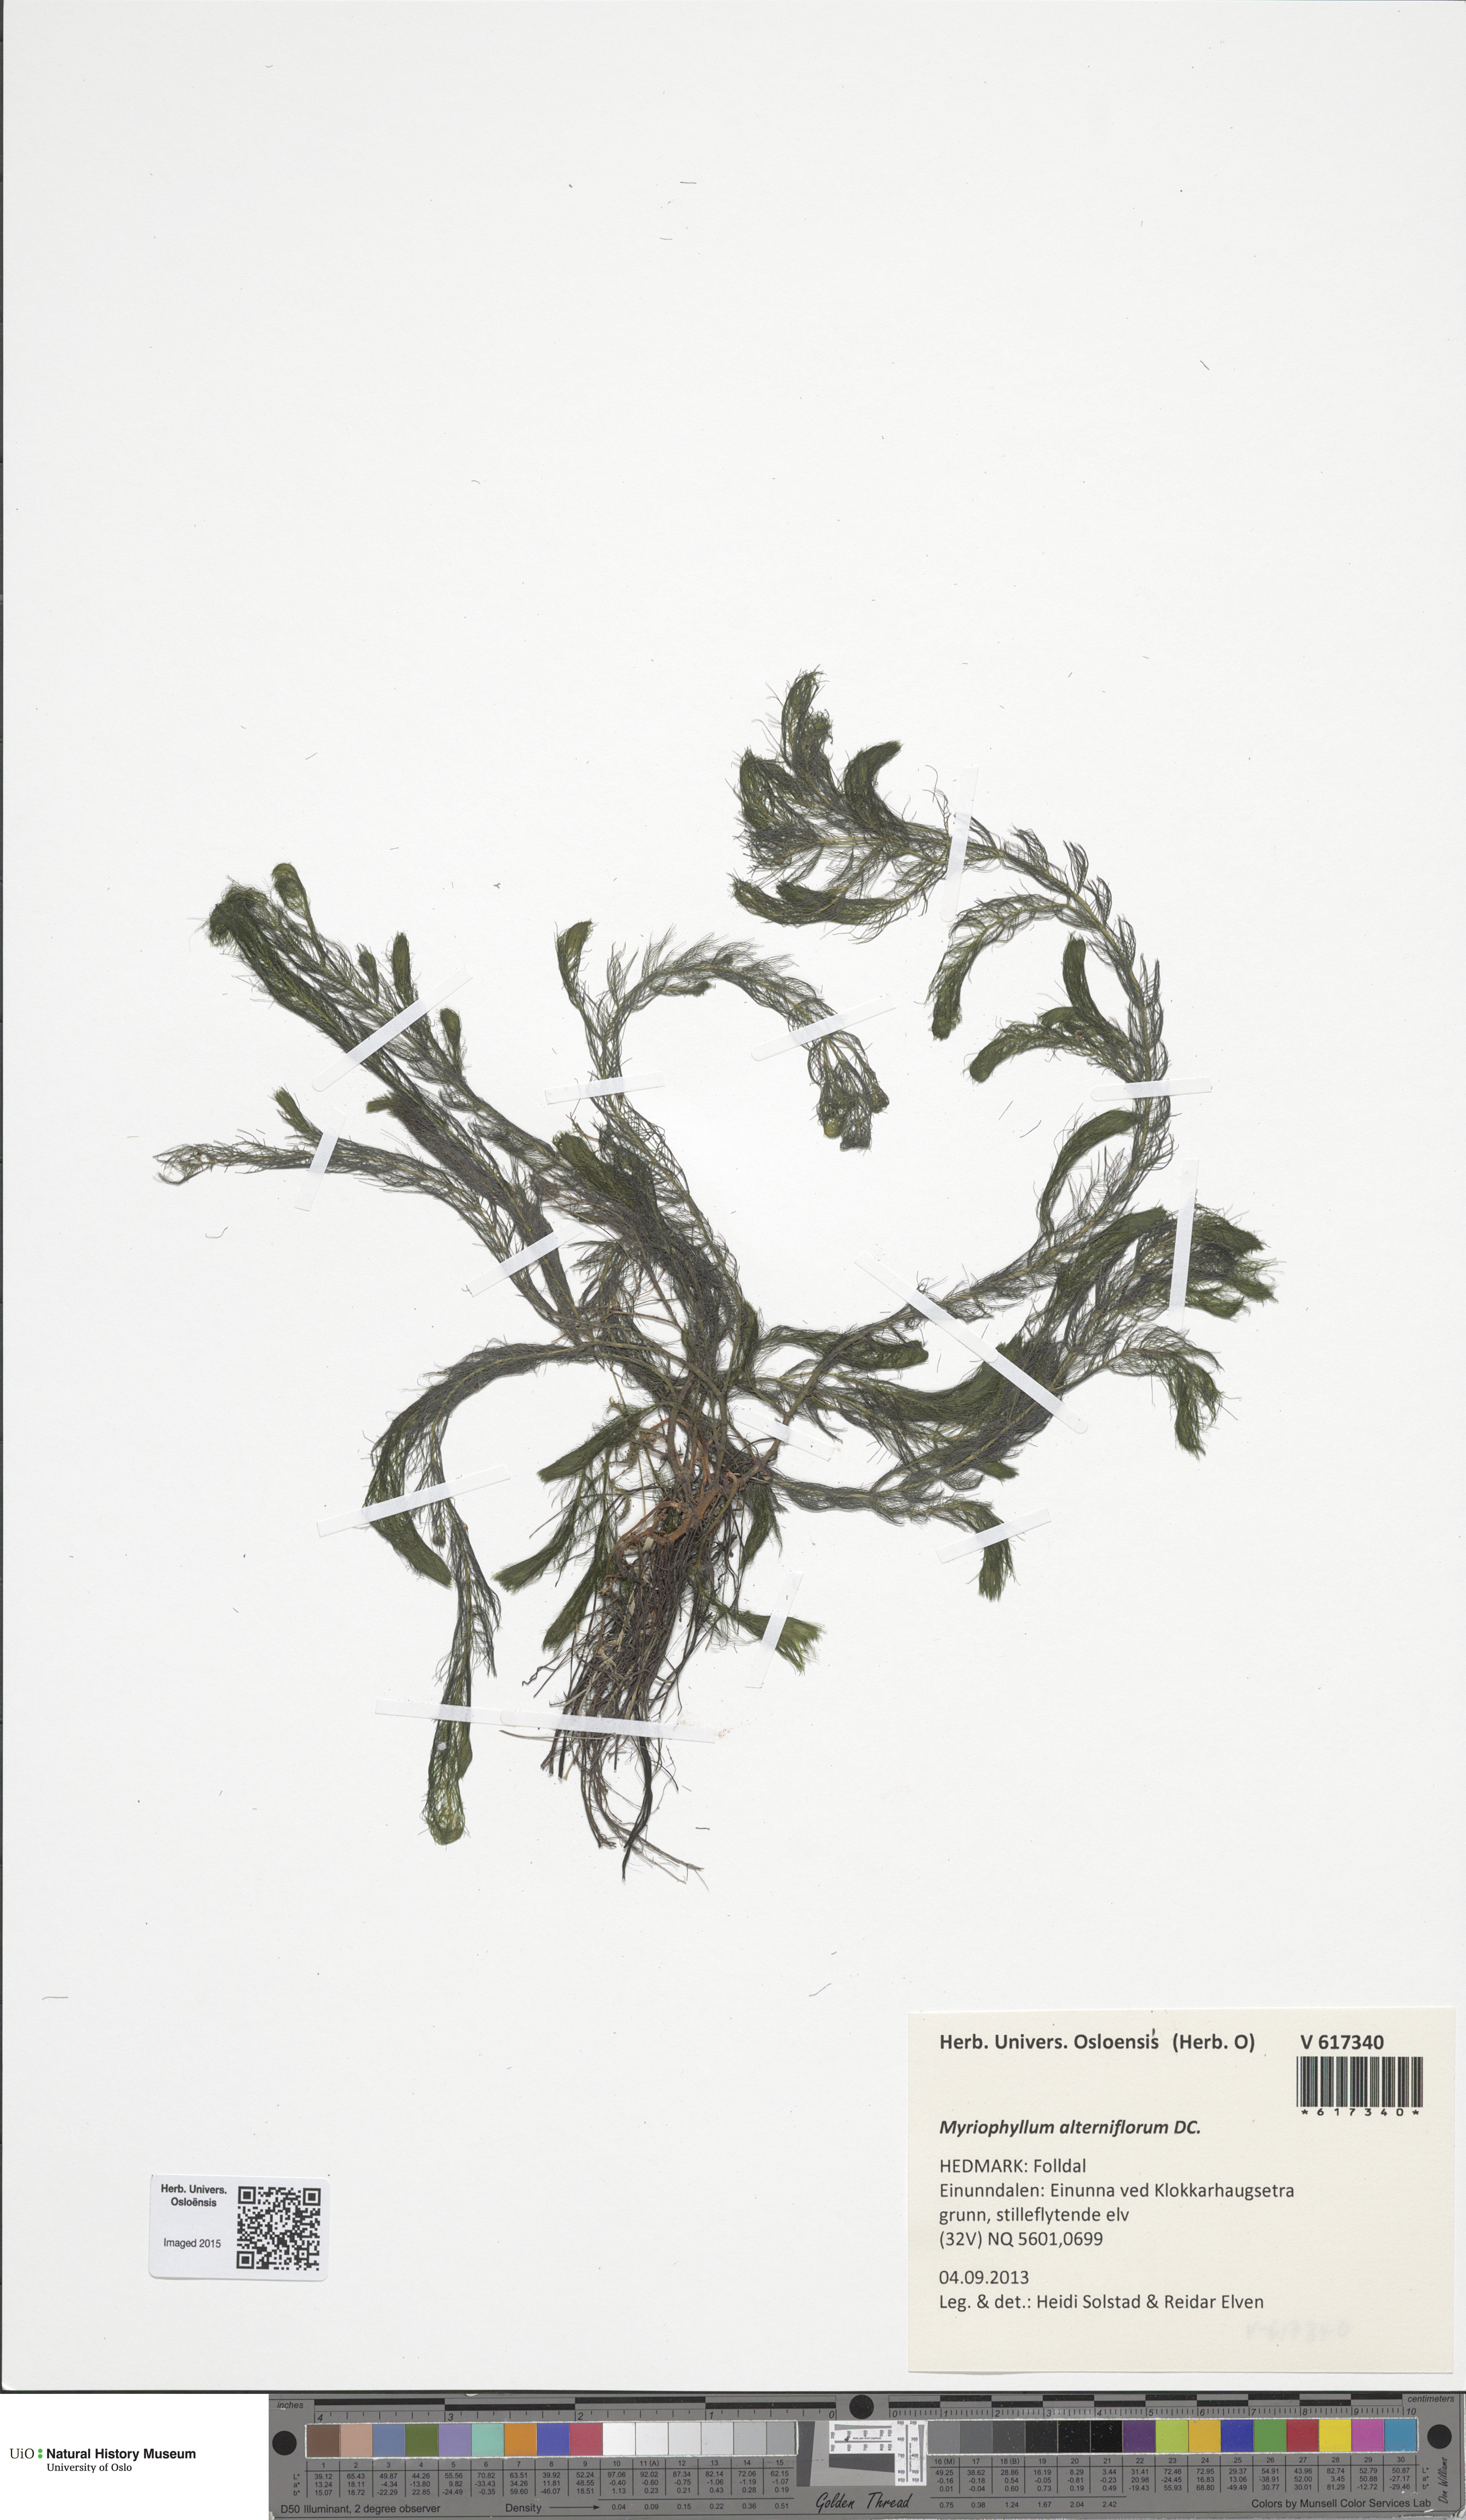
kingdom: Plantae
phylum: Tracheophyta
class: Magnoliopsida
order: Saxifragales
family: Haloragaceae
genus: Myriophyllum
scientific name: Myriophyllum alterniflorum
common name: Alternate water-milfoil
